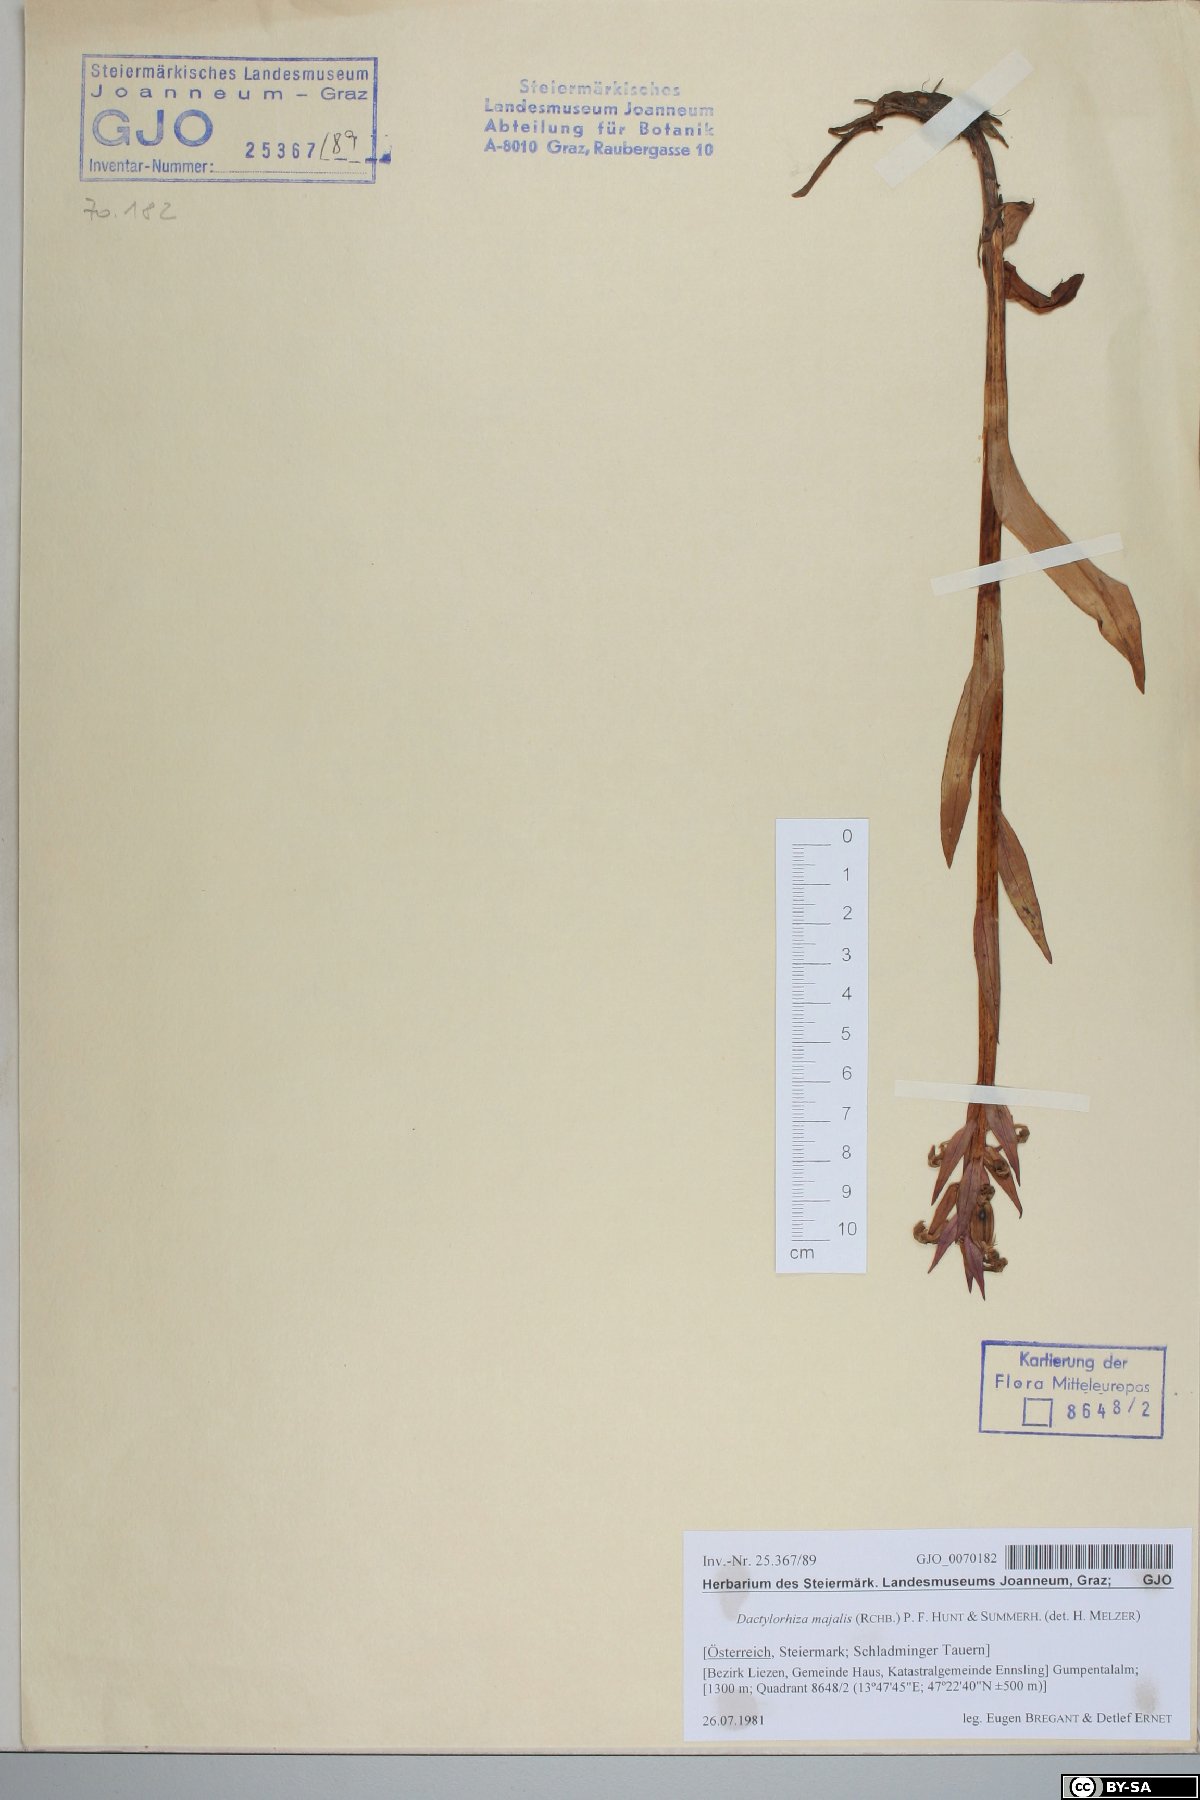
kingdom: Plantae
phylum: Tracheophyta
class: Liliopsida
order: Asparagales
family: Orchidaceae
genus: Dactylorhiza
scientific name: Dactylorhiza majalis
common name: Marsh orchid
